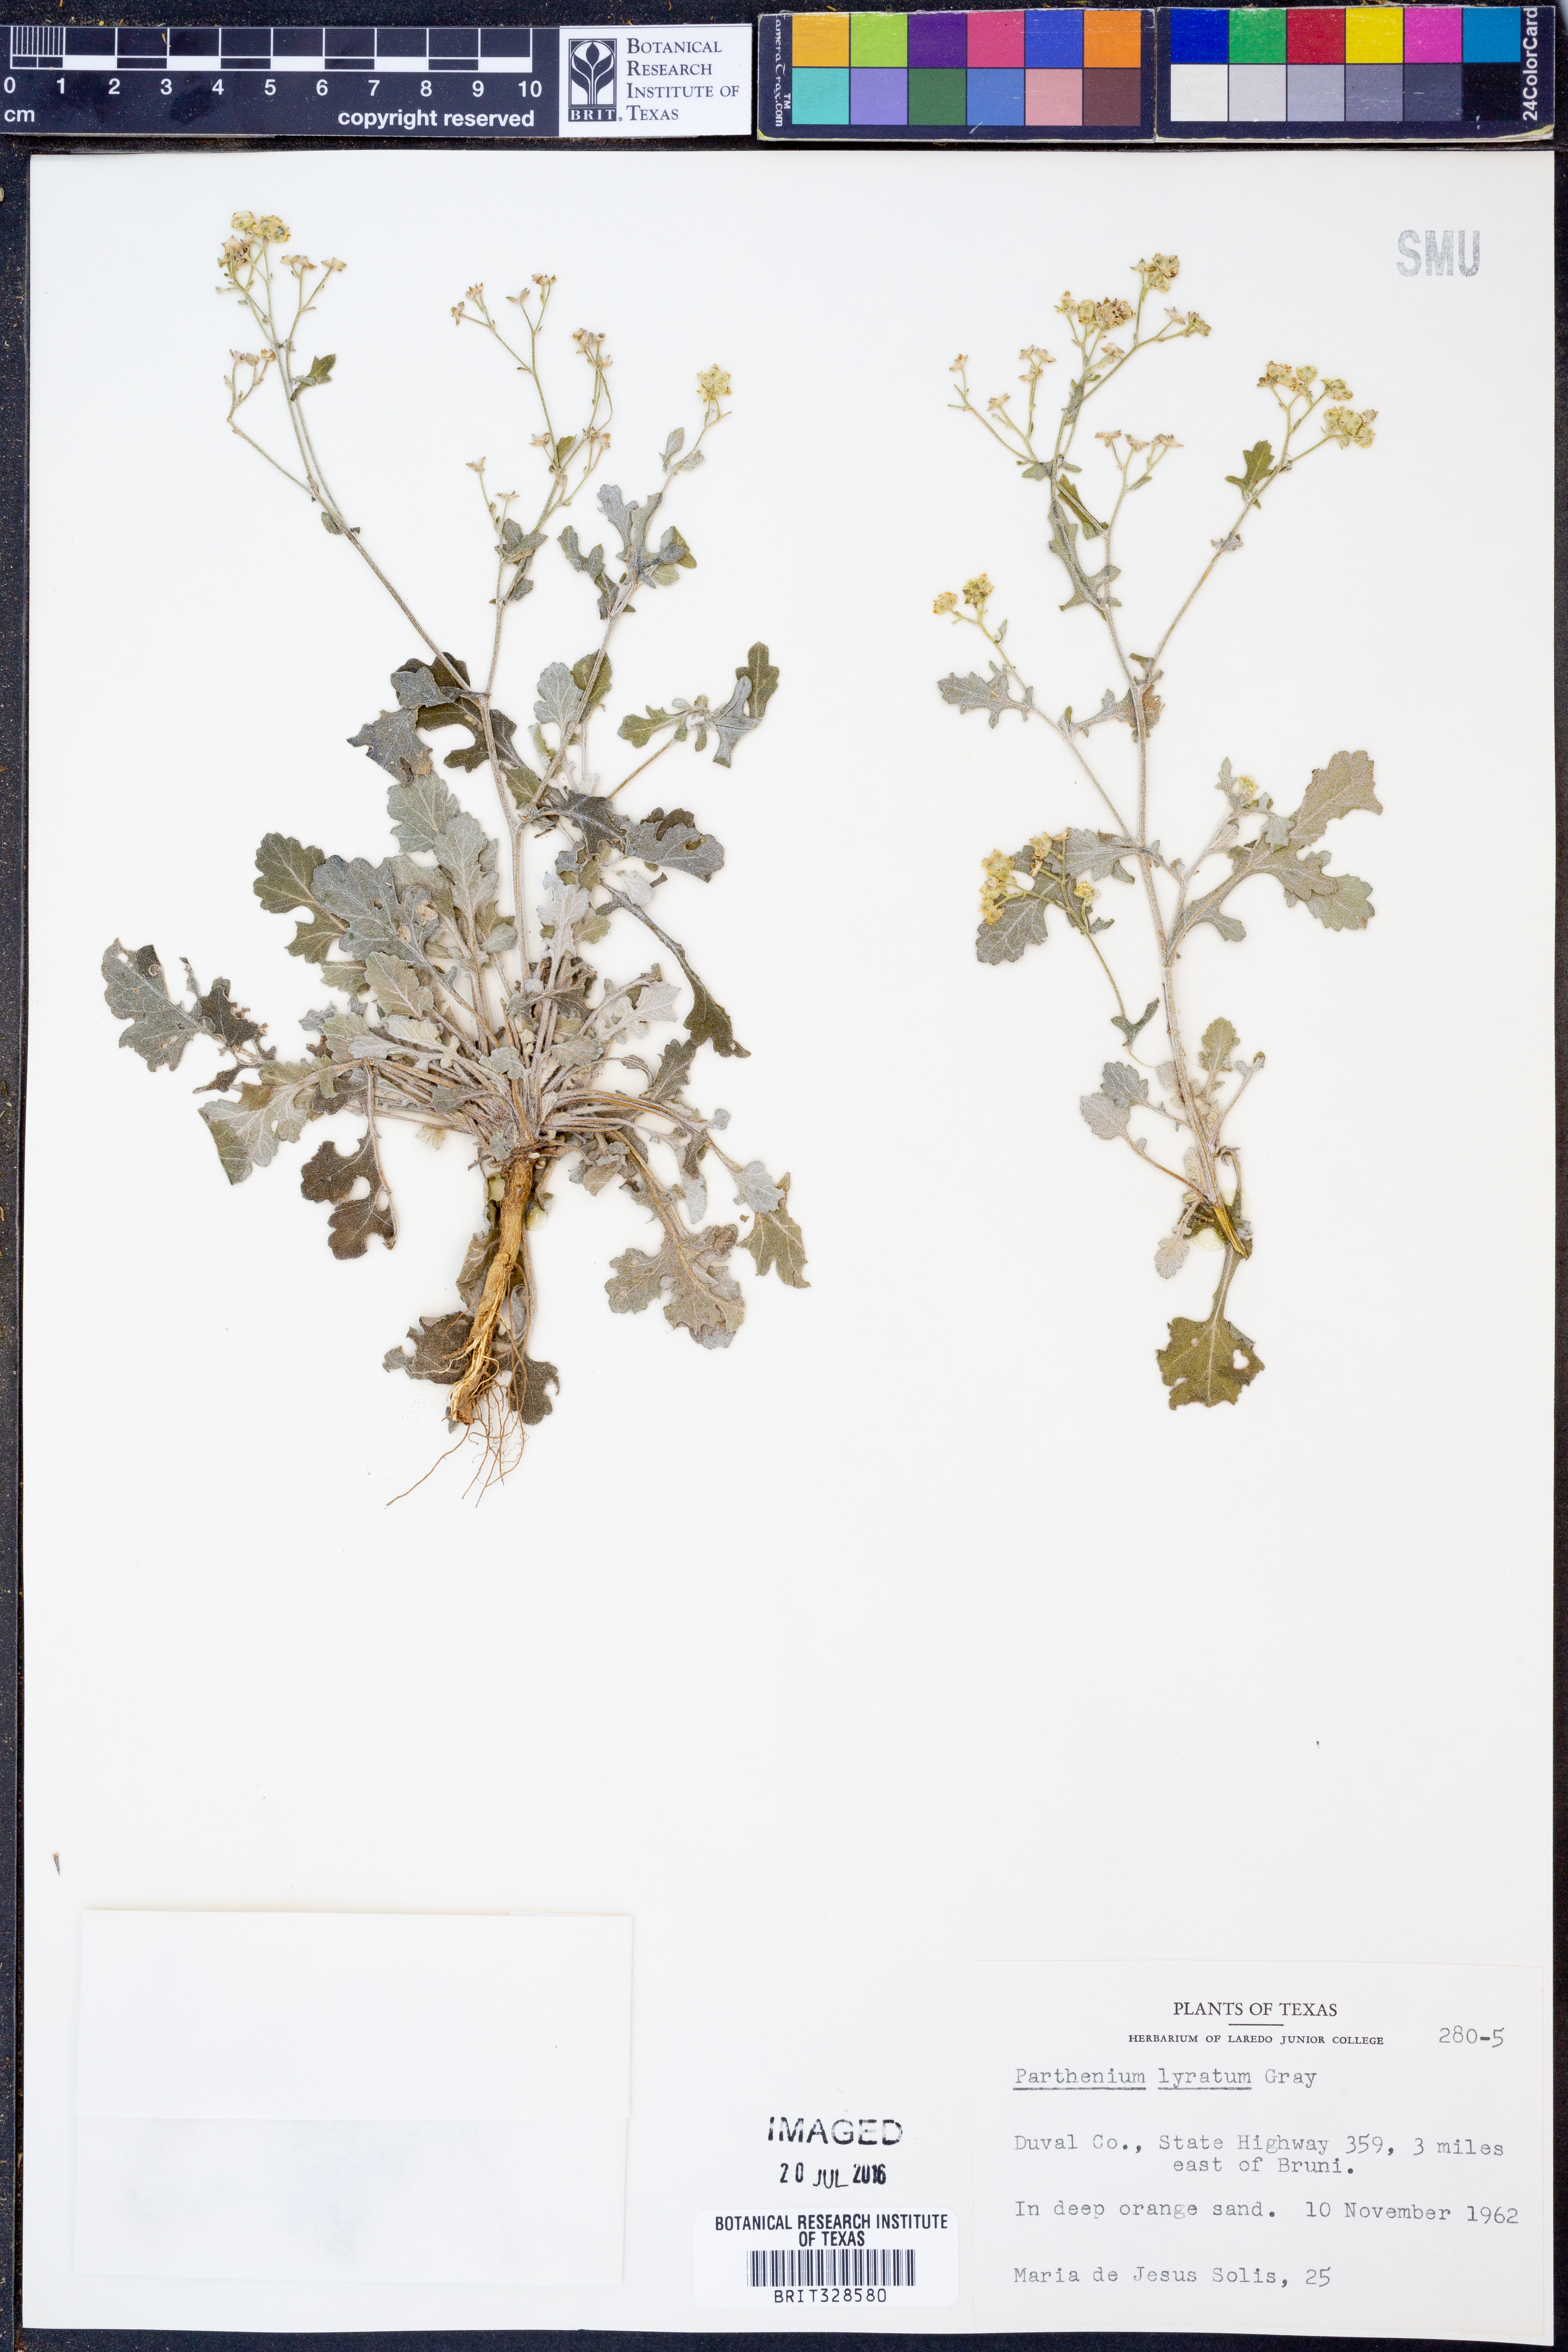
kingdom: Plantae
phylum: Tracheophyta
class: Magnoliopsida
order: Asterales
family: Asteraceae
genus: Parthenium
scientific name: Parthenium confertum
